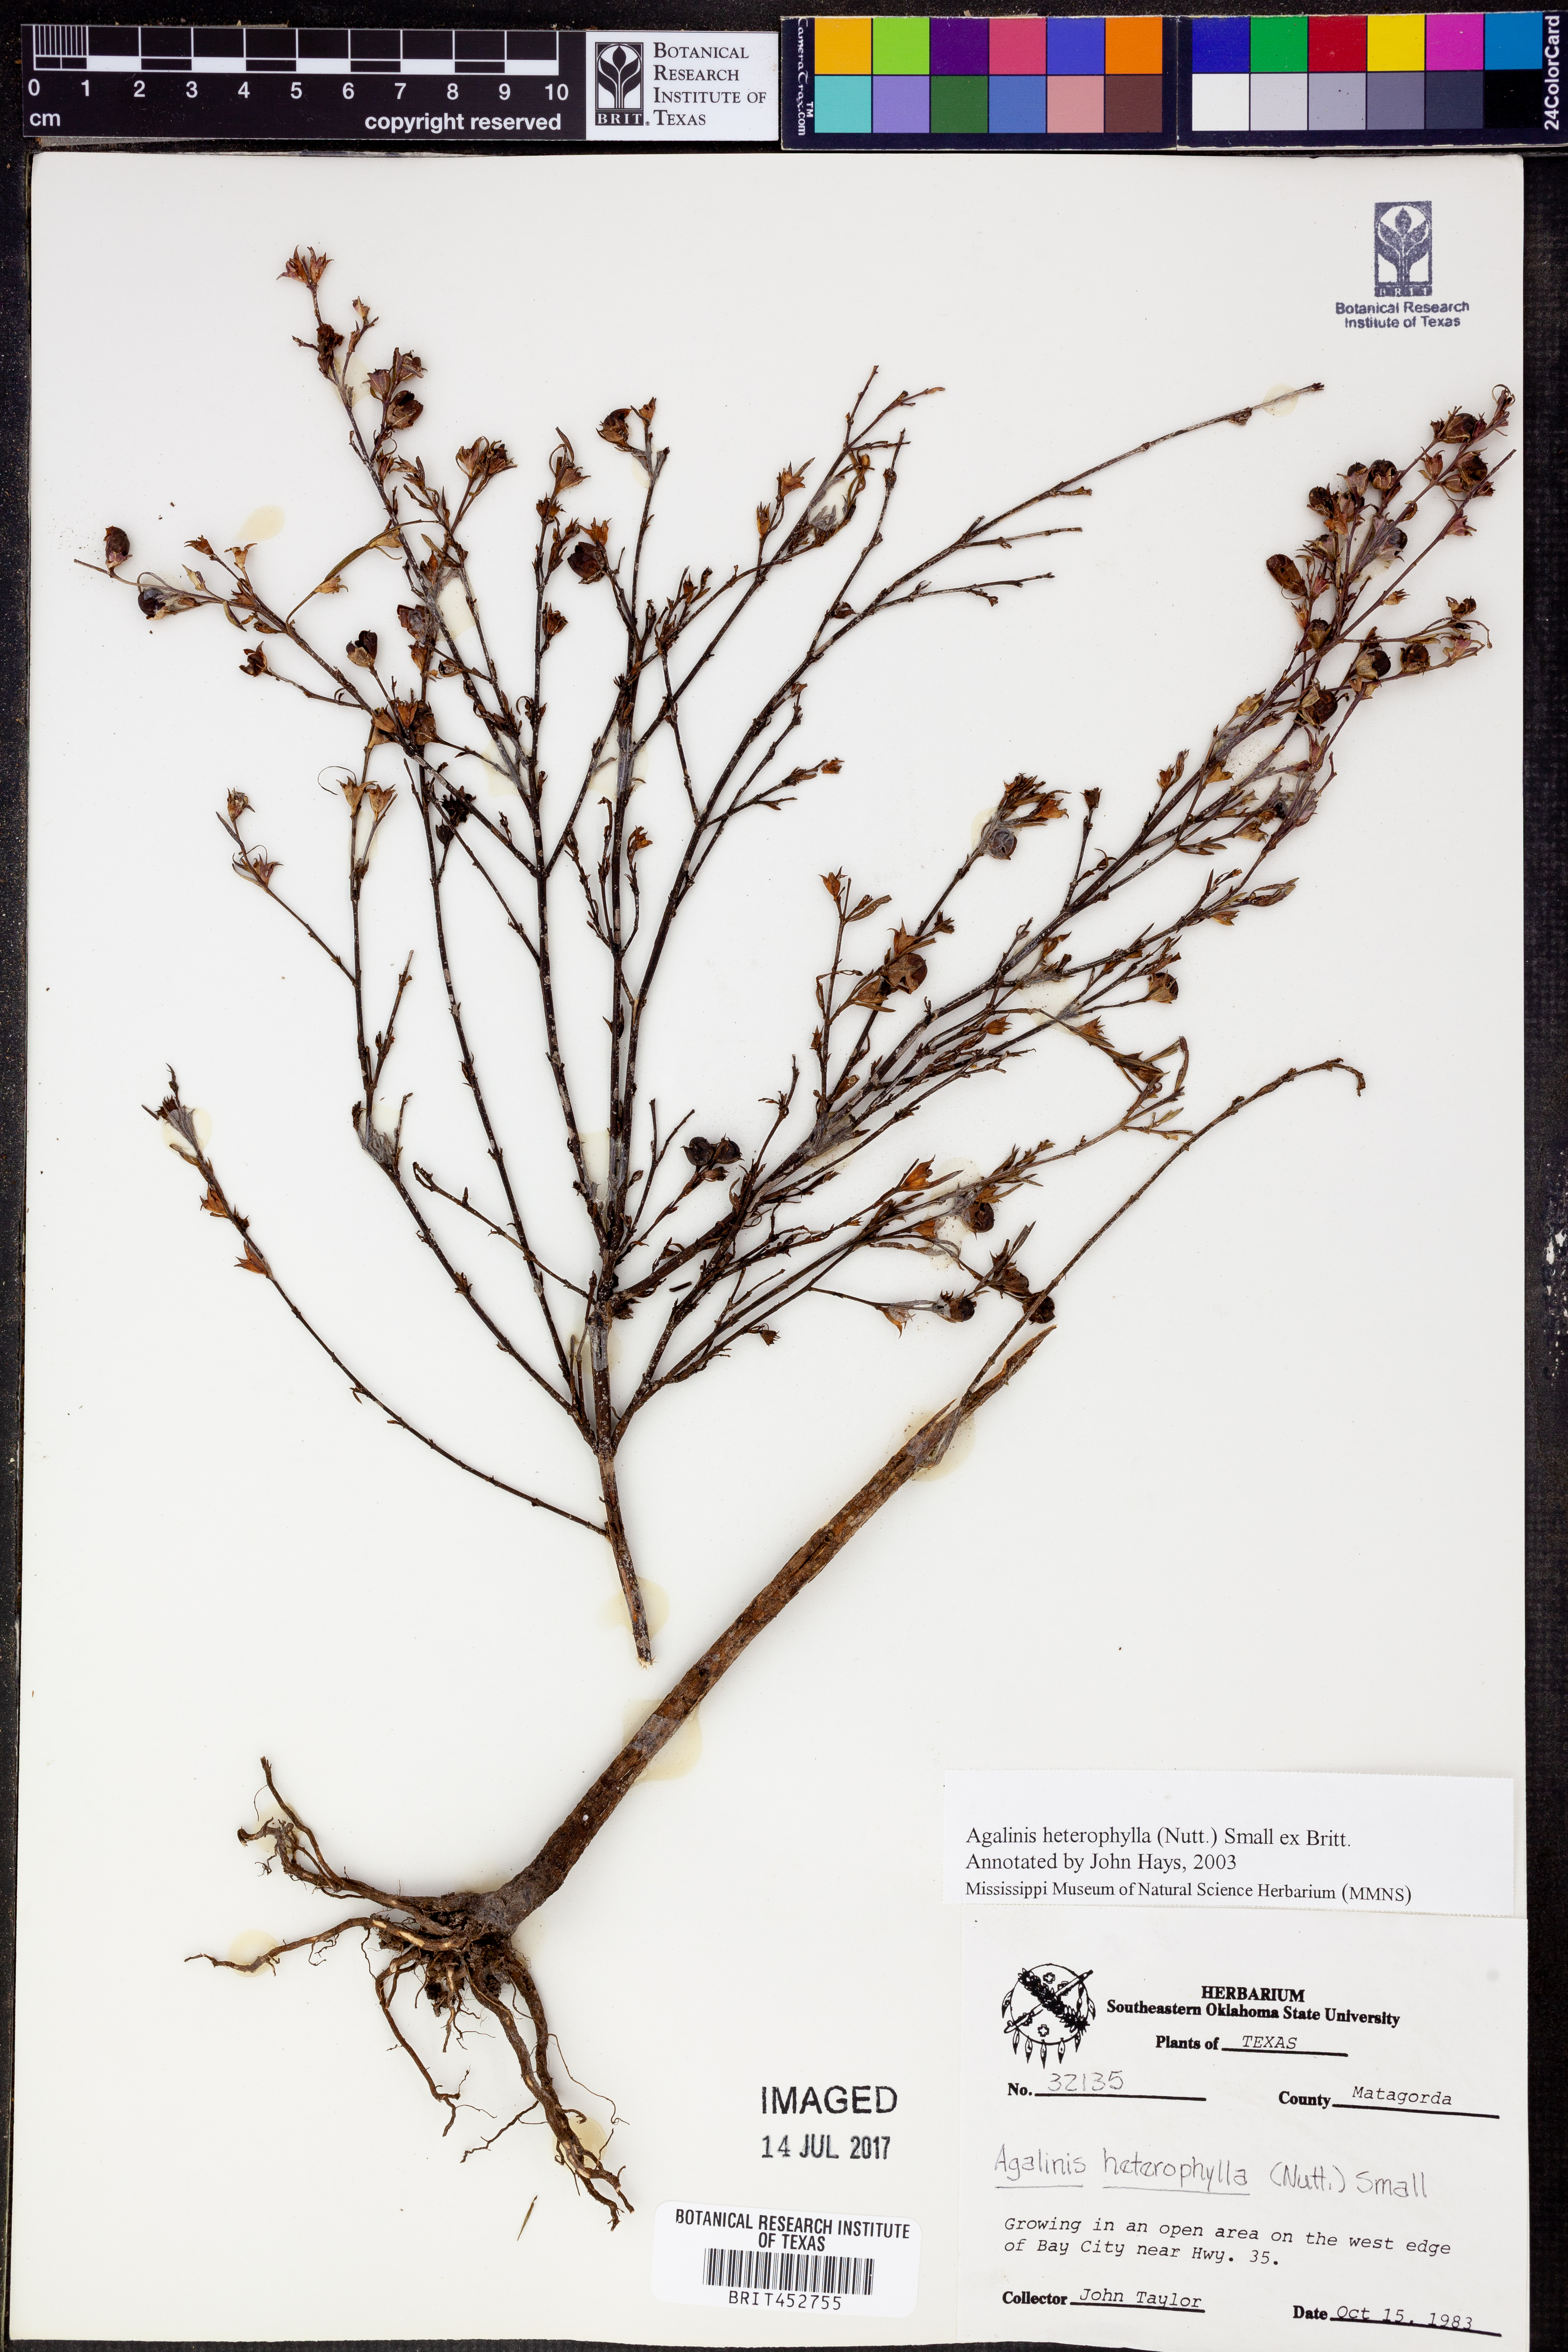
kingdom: Plantae
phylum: Tracheophyta
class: Magnoliopsida
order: Lamiales
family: Orobanchaceae
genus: Agalinis
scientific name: Agalinis heterophylla
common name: Prairie agalinis
